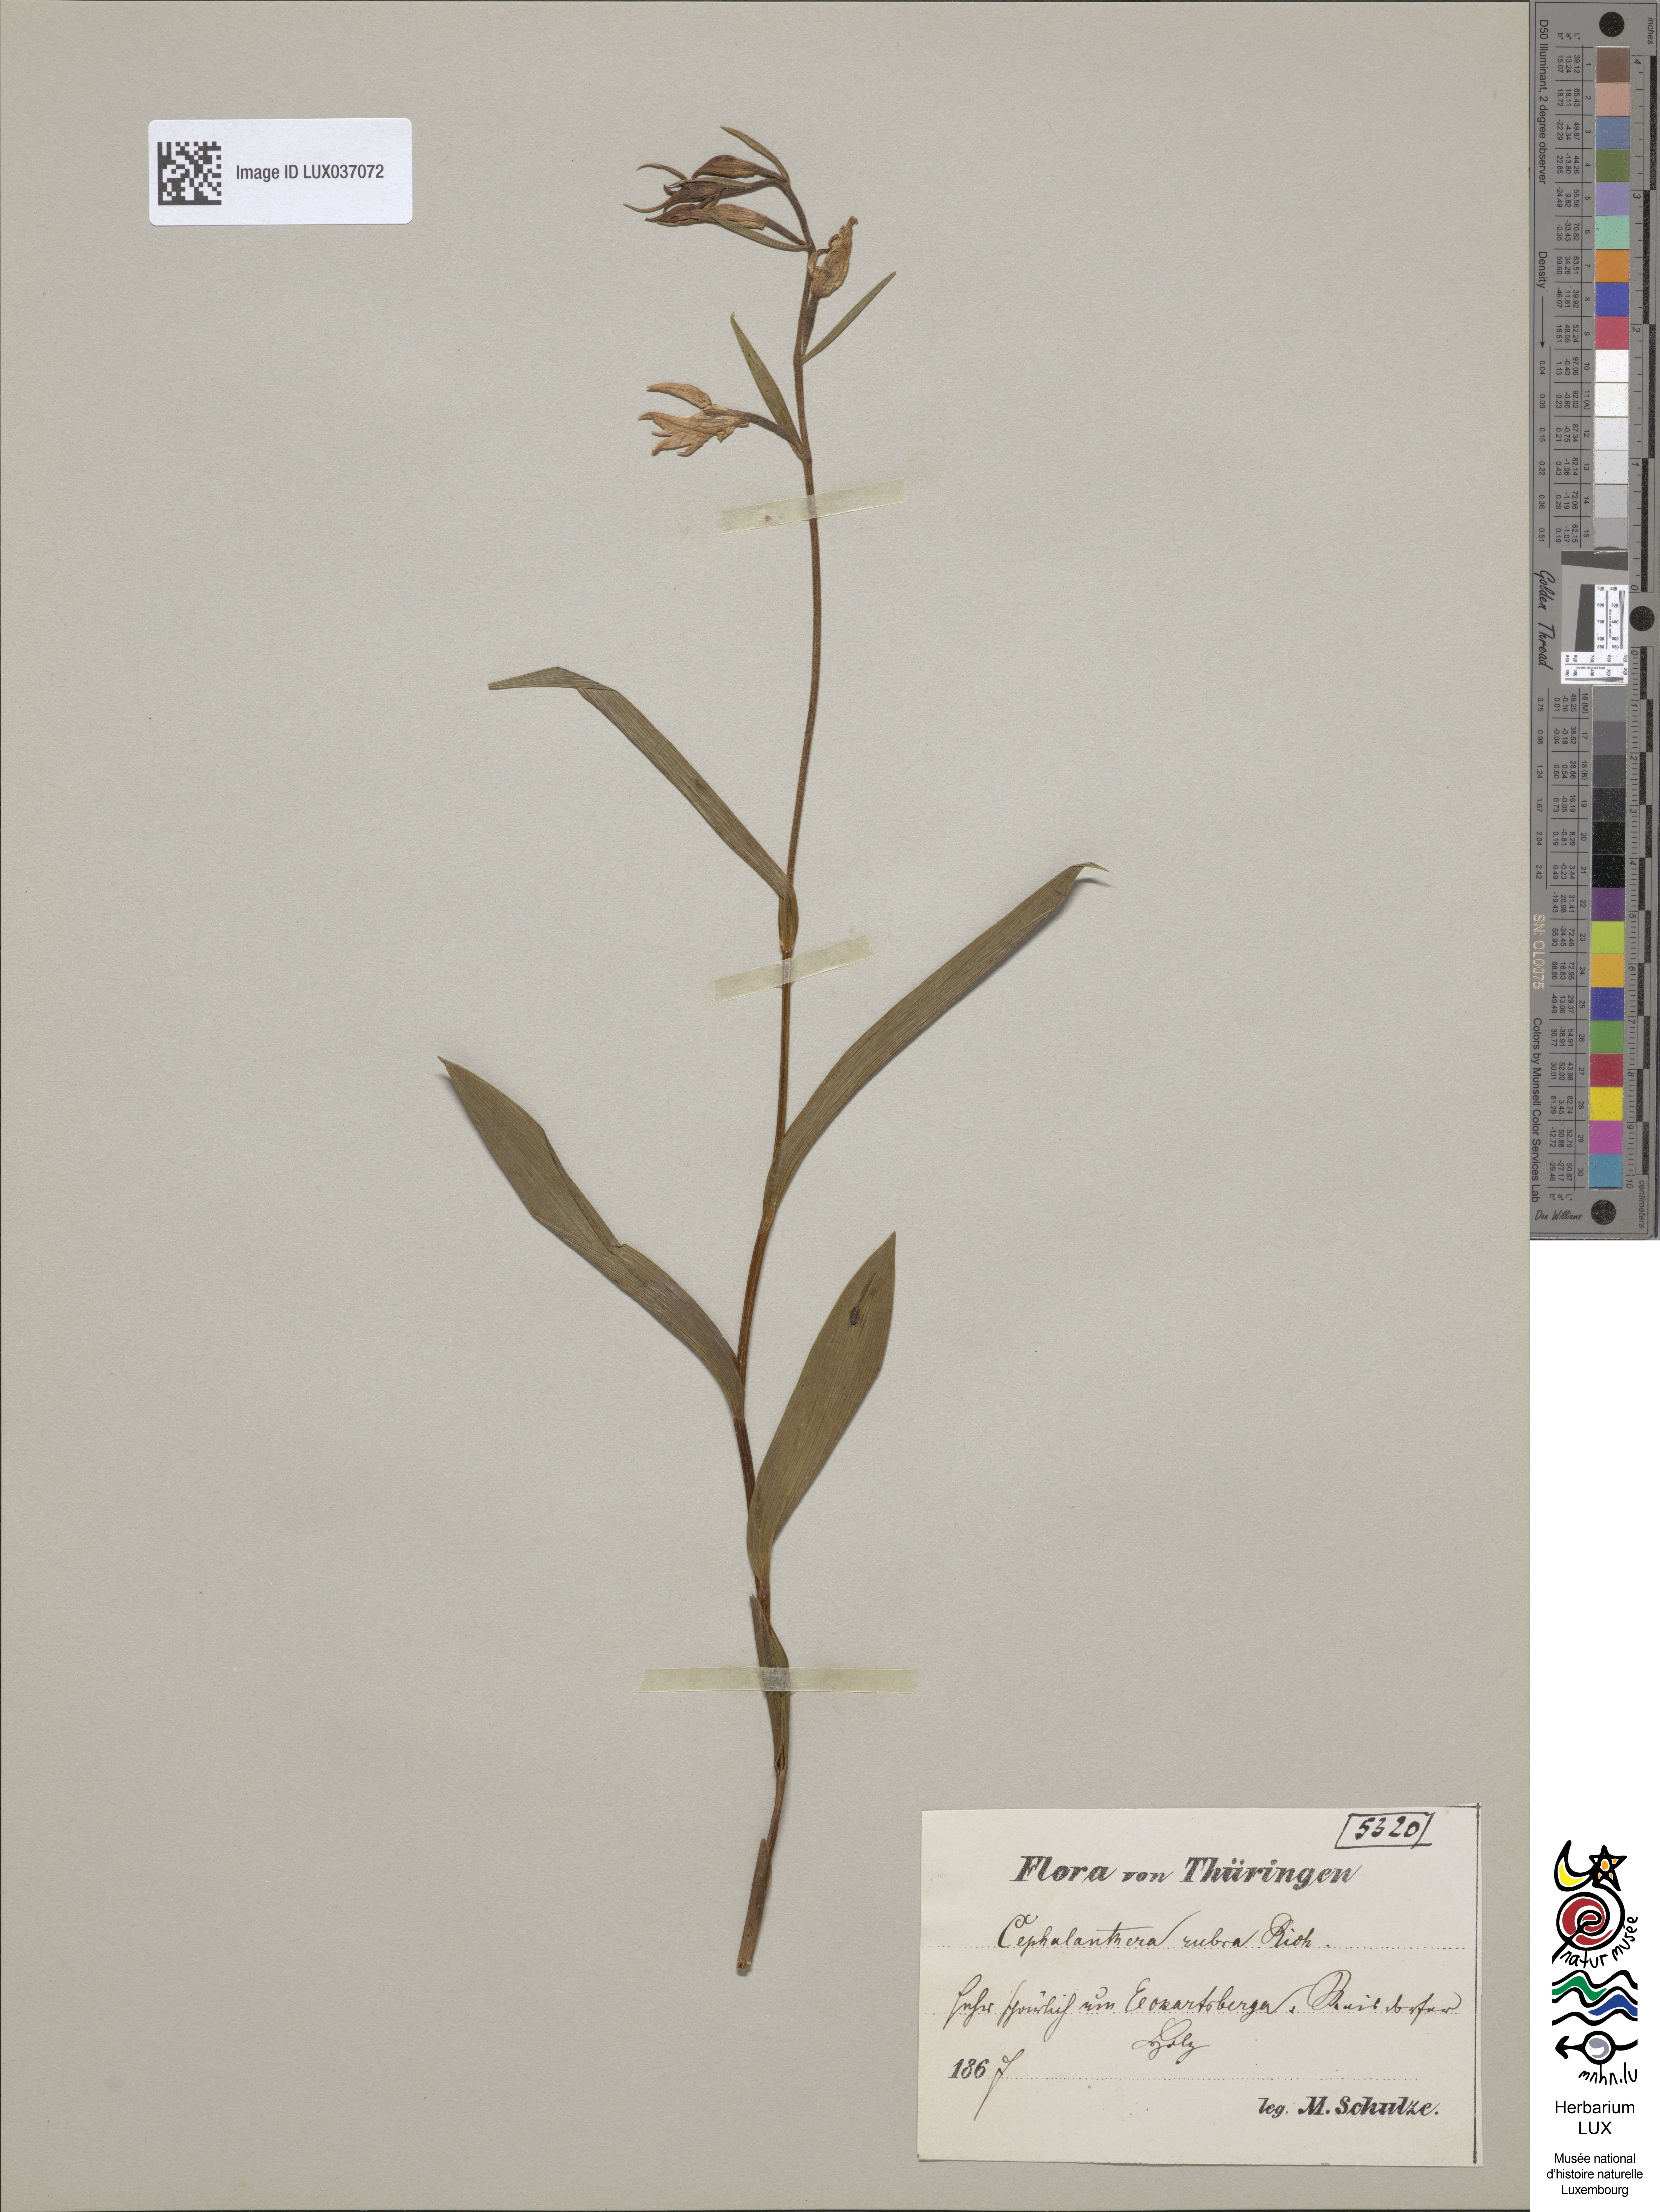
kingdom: Plantae
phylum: Tracheophyta
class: Liliopsida
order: Asparagales
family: Orchidaceae
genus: Cephalanthera
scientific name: Cephalanthera rubra
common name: Red helleborine
